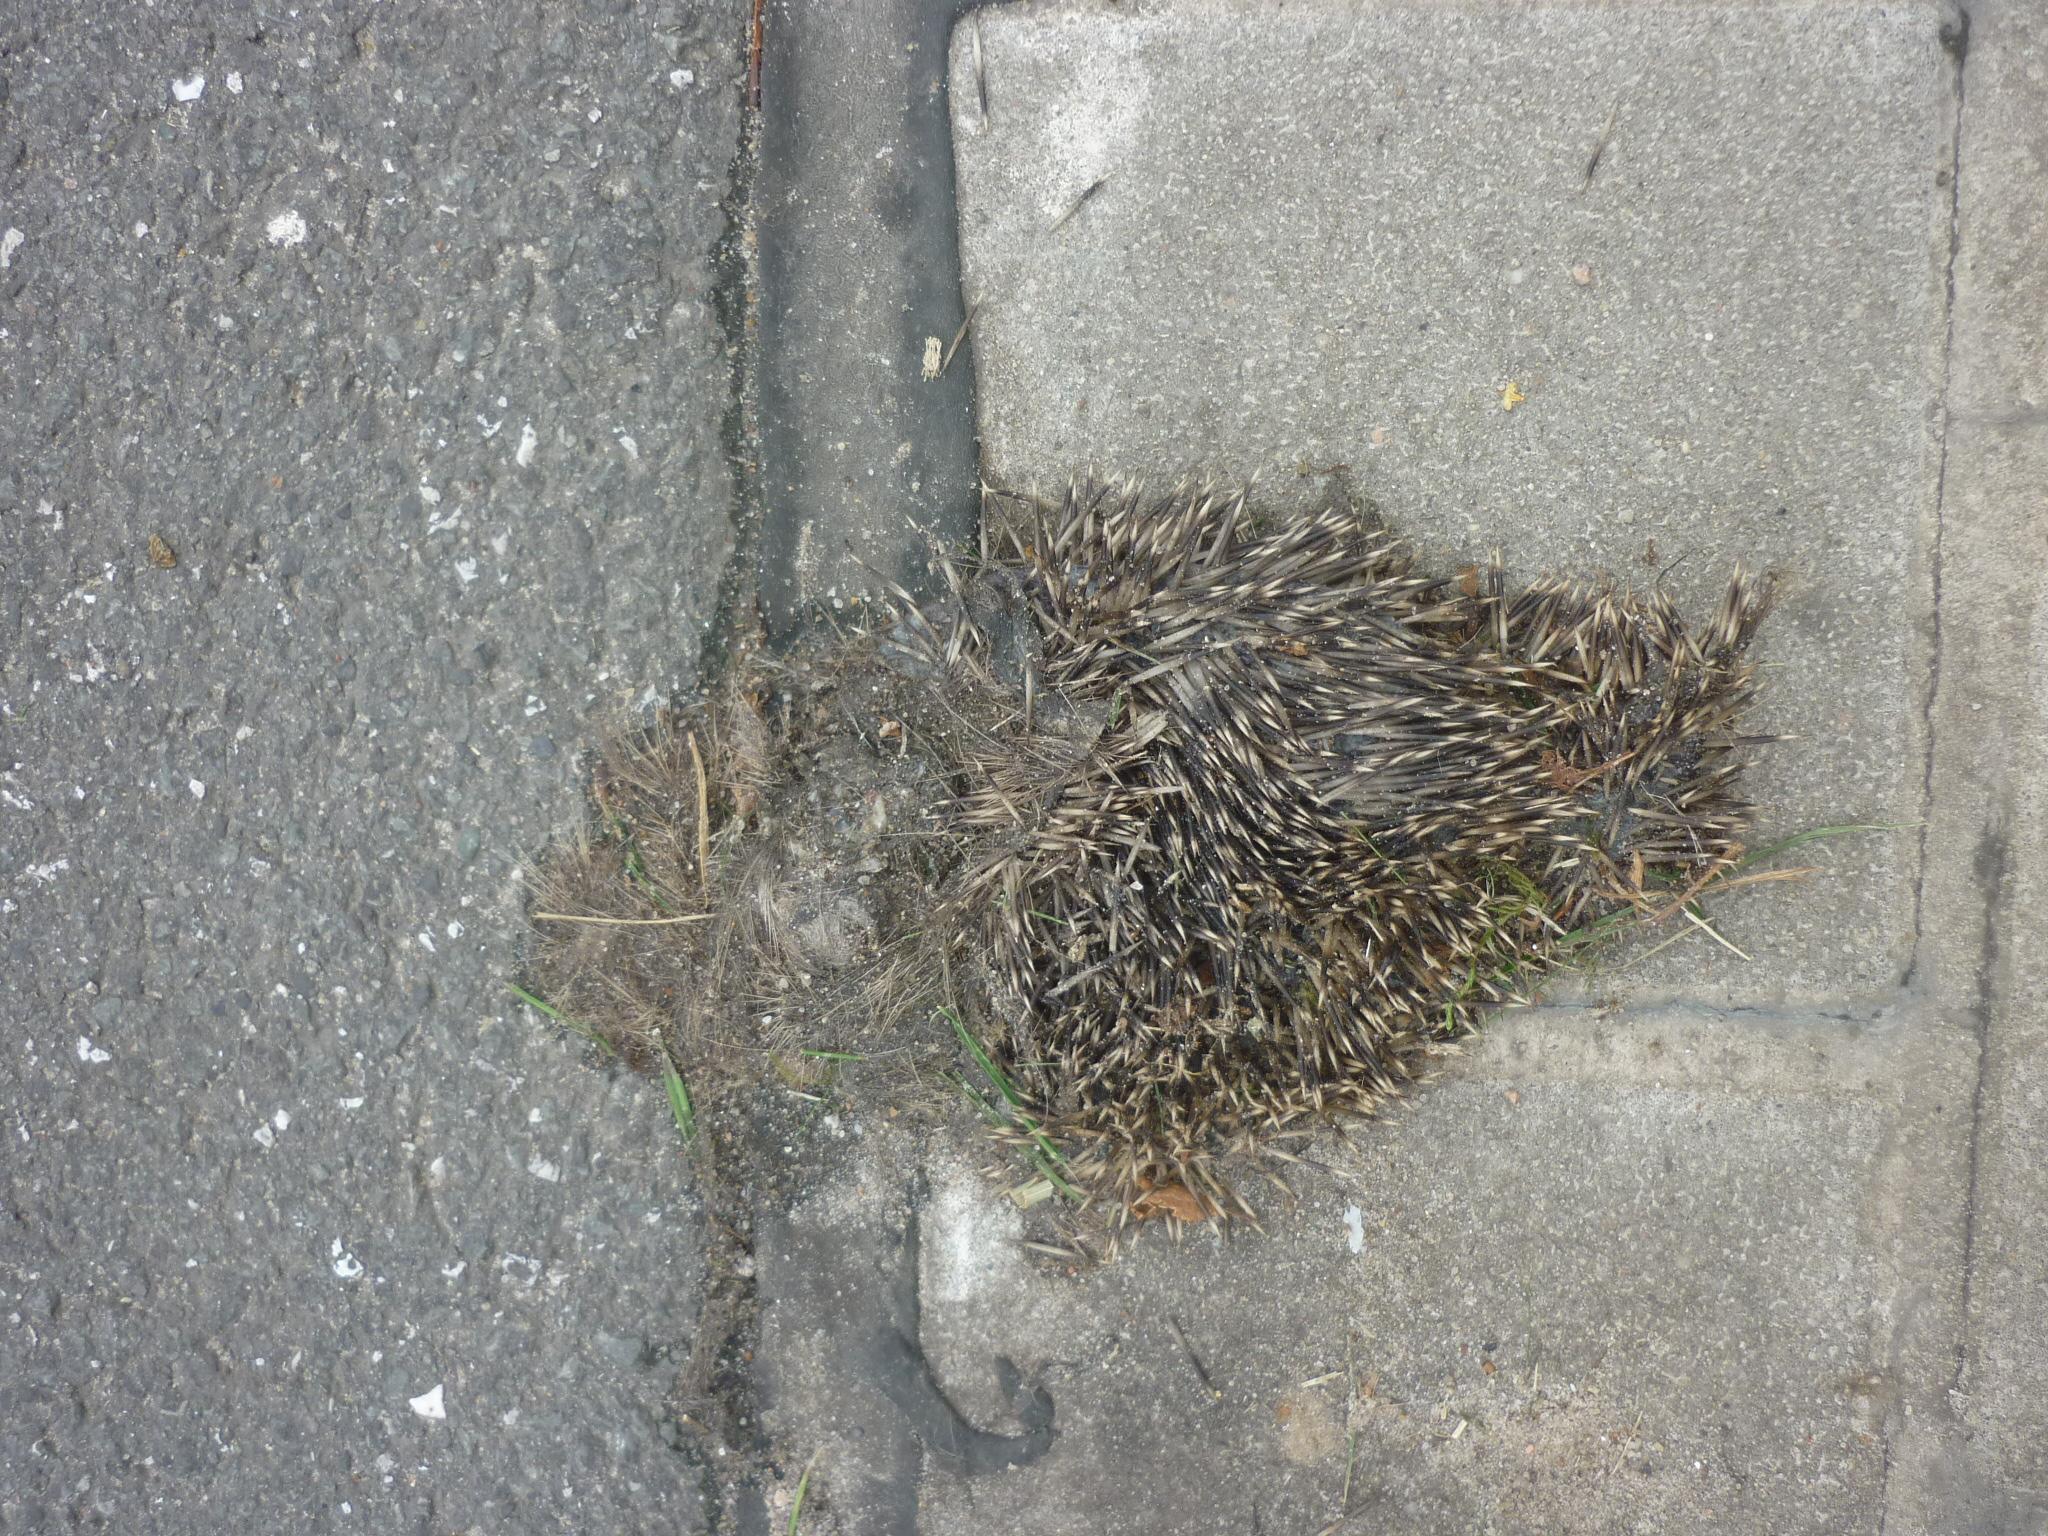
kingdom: Animalia
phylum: Chordata
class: Mammalia
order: Erinaceomorpha
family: Erinaceidae
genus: Erinaceus
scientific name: Erinaceus
